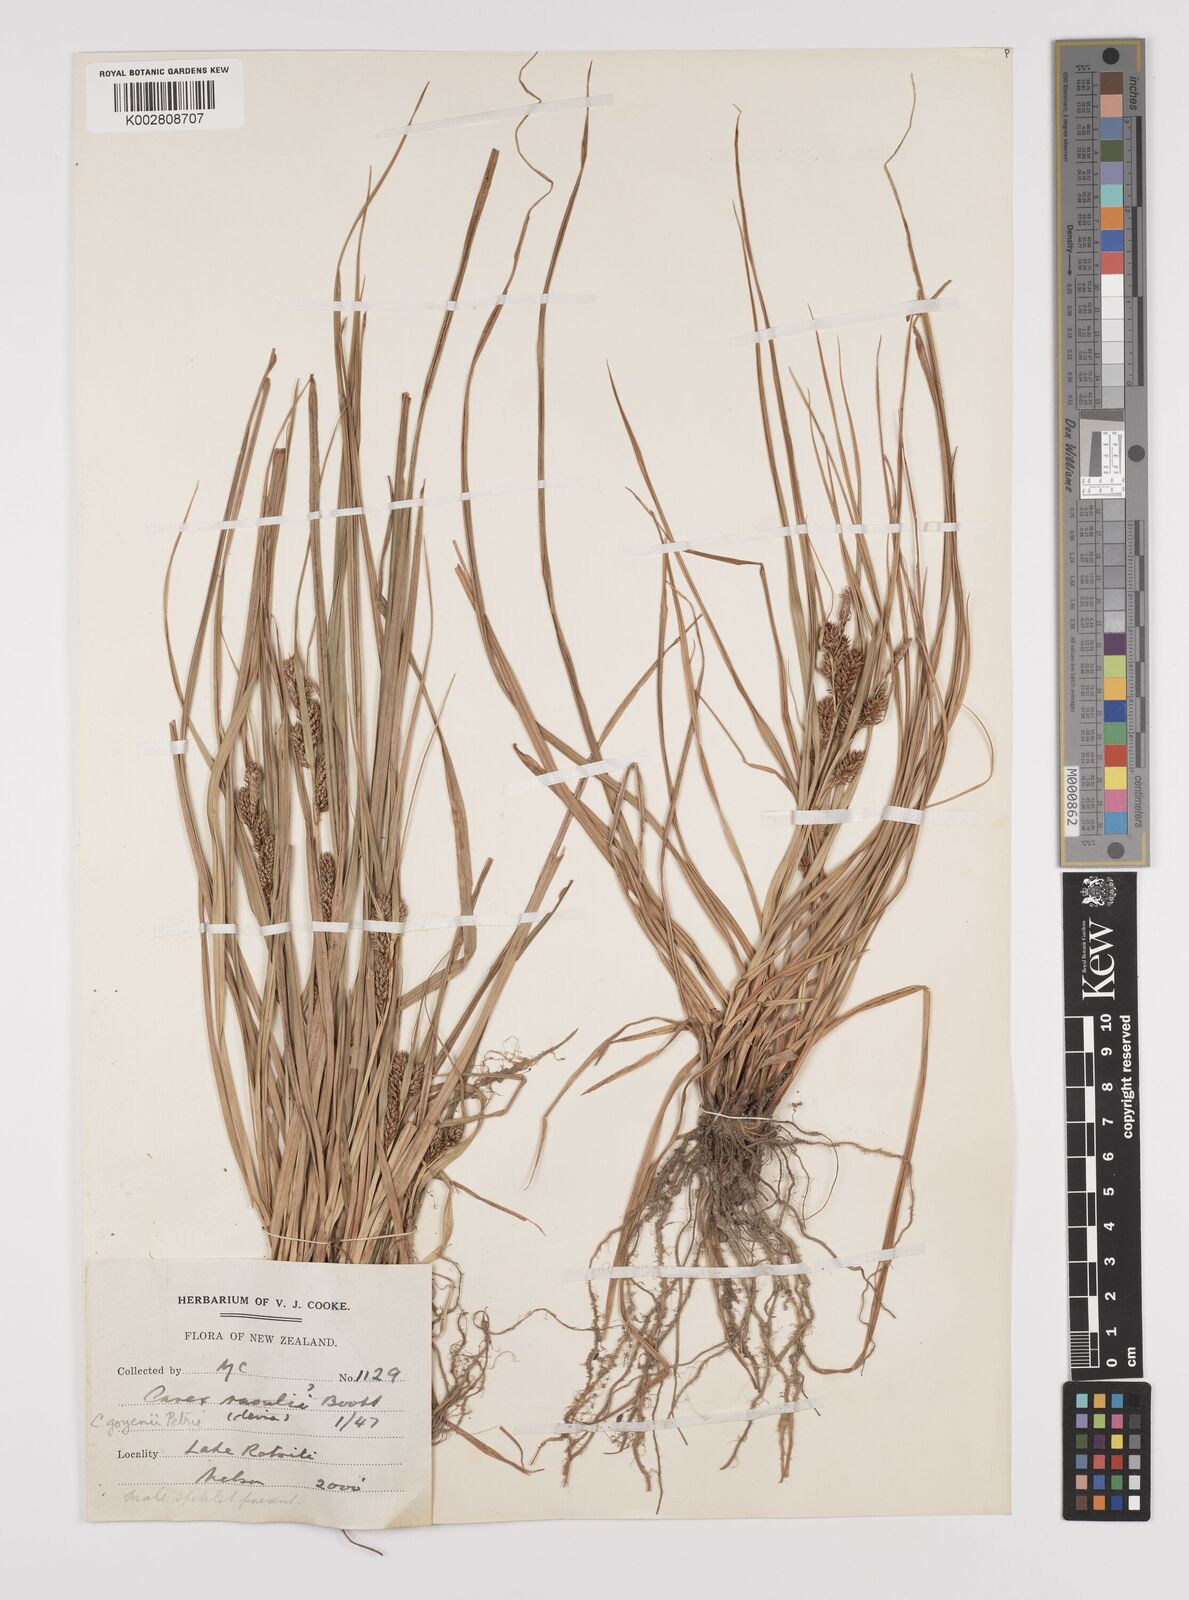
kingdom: Plantae
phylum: Tracheophyta
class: Liliopsida
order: Poales
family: Cyperaceae
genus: Carex
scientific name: Carex raoulii
